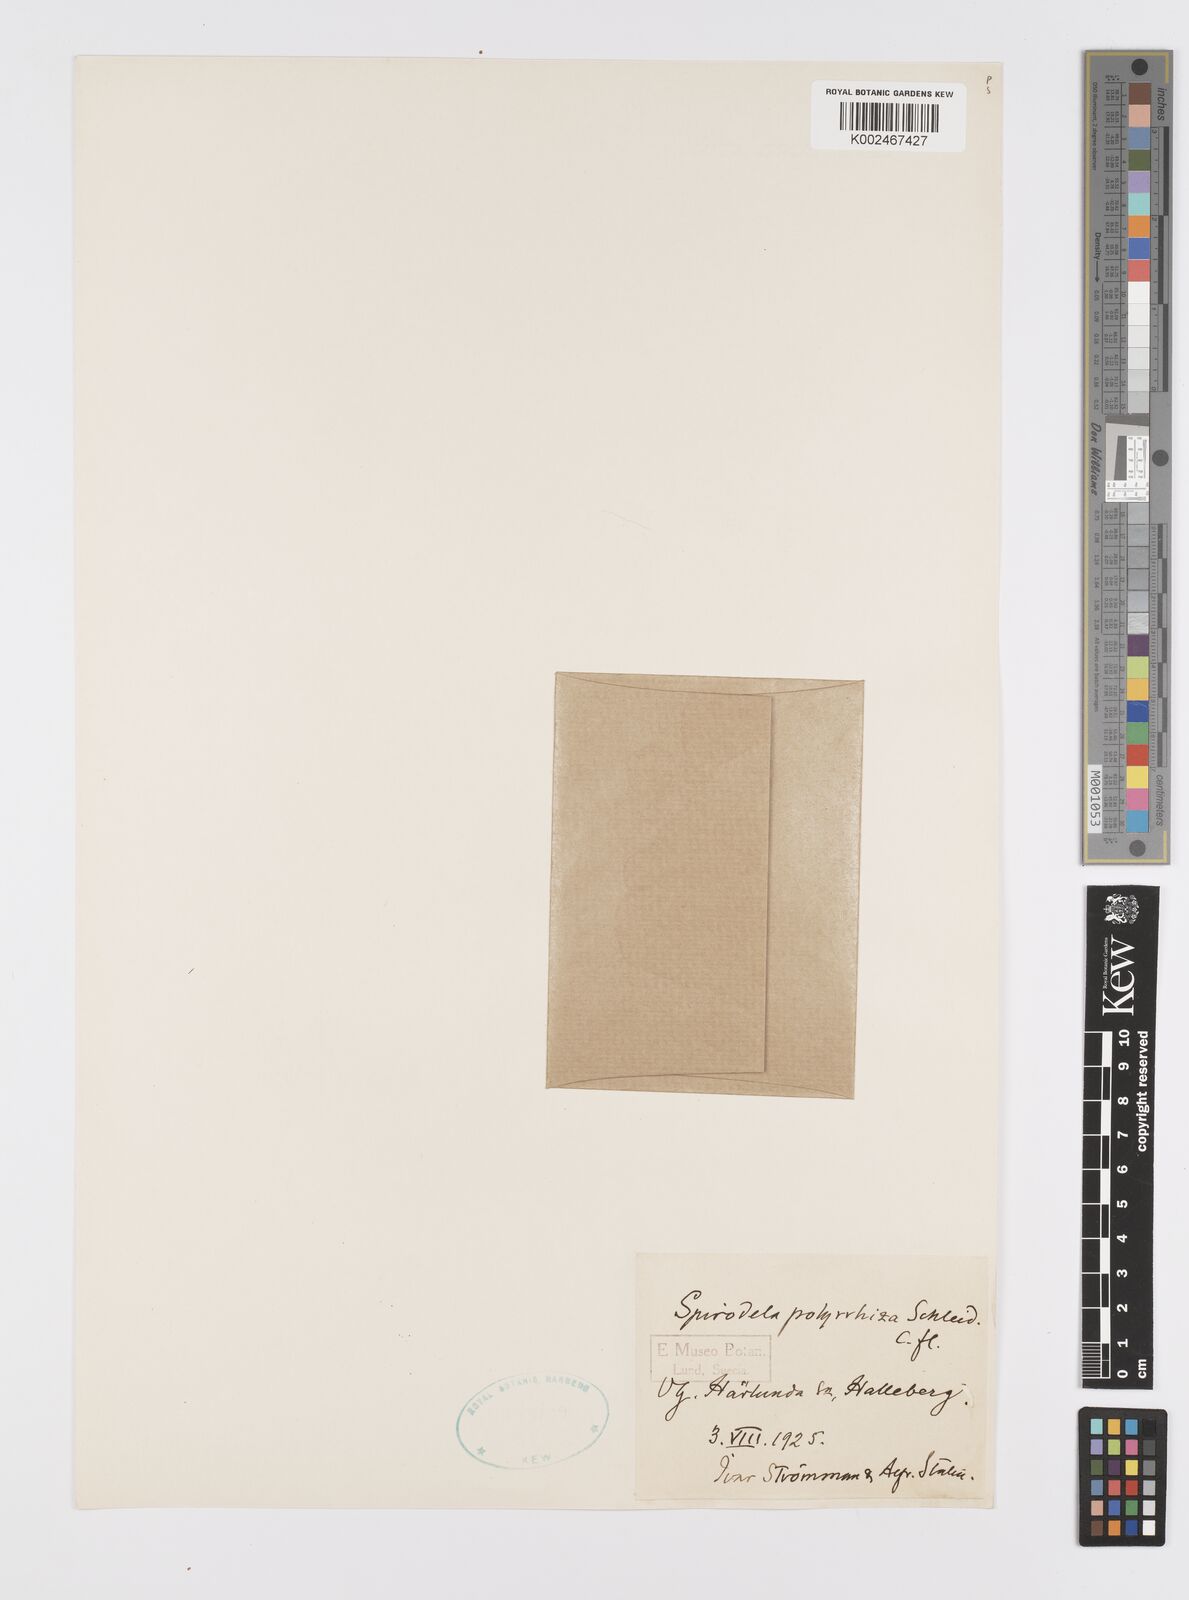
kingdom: Plantae
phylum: Tracheophyta
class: Liliopsida
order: Alismatales
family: Araceae
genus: Spirodela
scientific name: Spirodela polyrhiza
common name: Great duckweed
